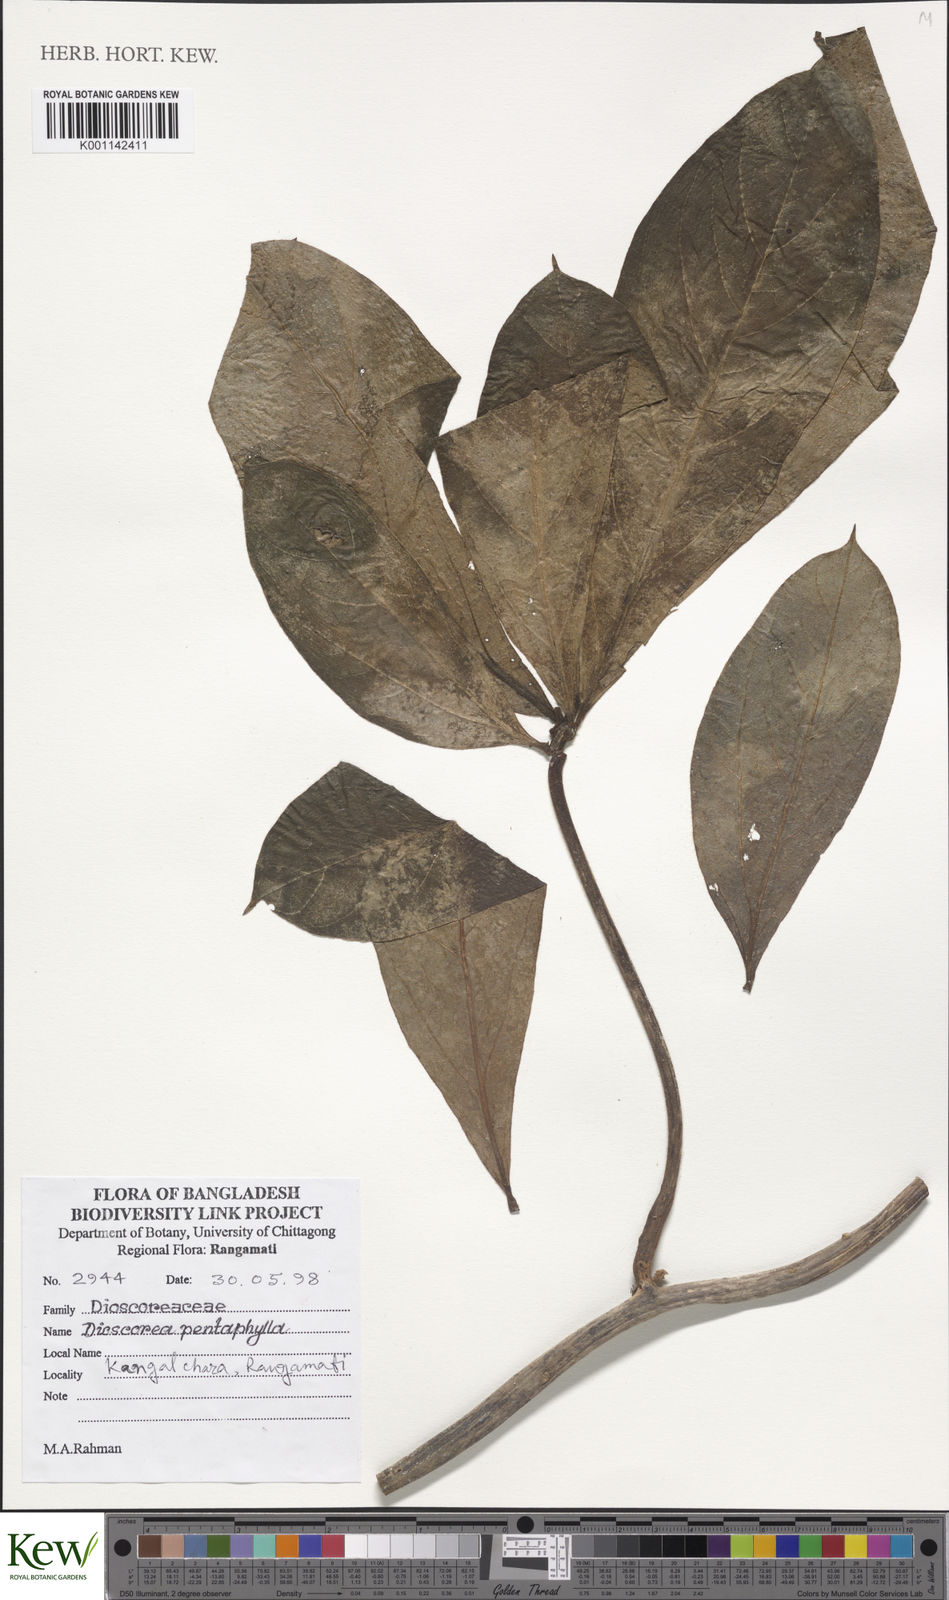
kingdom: Plantae
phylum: Tracheophyta
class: Liliopsida
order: Dioscoreales
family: Dioscoreaceae
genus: Dioscorea
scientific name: Dioscorea pentaphylla
